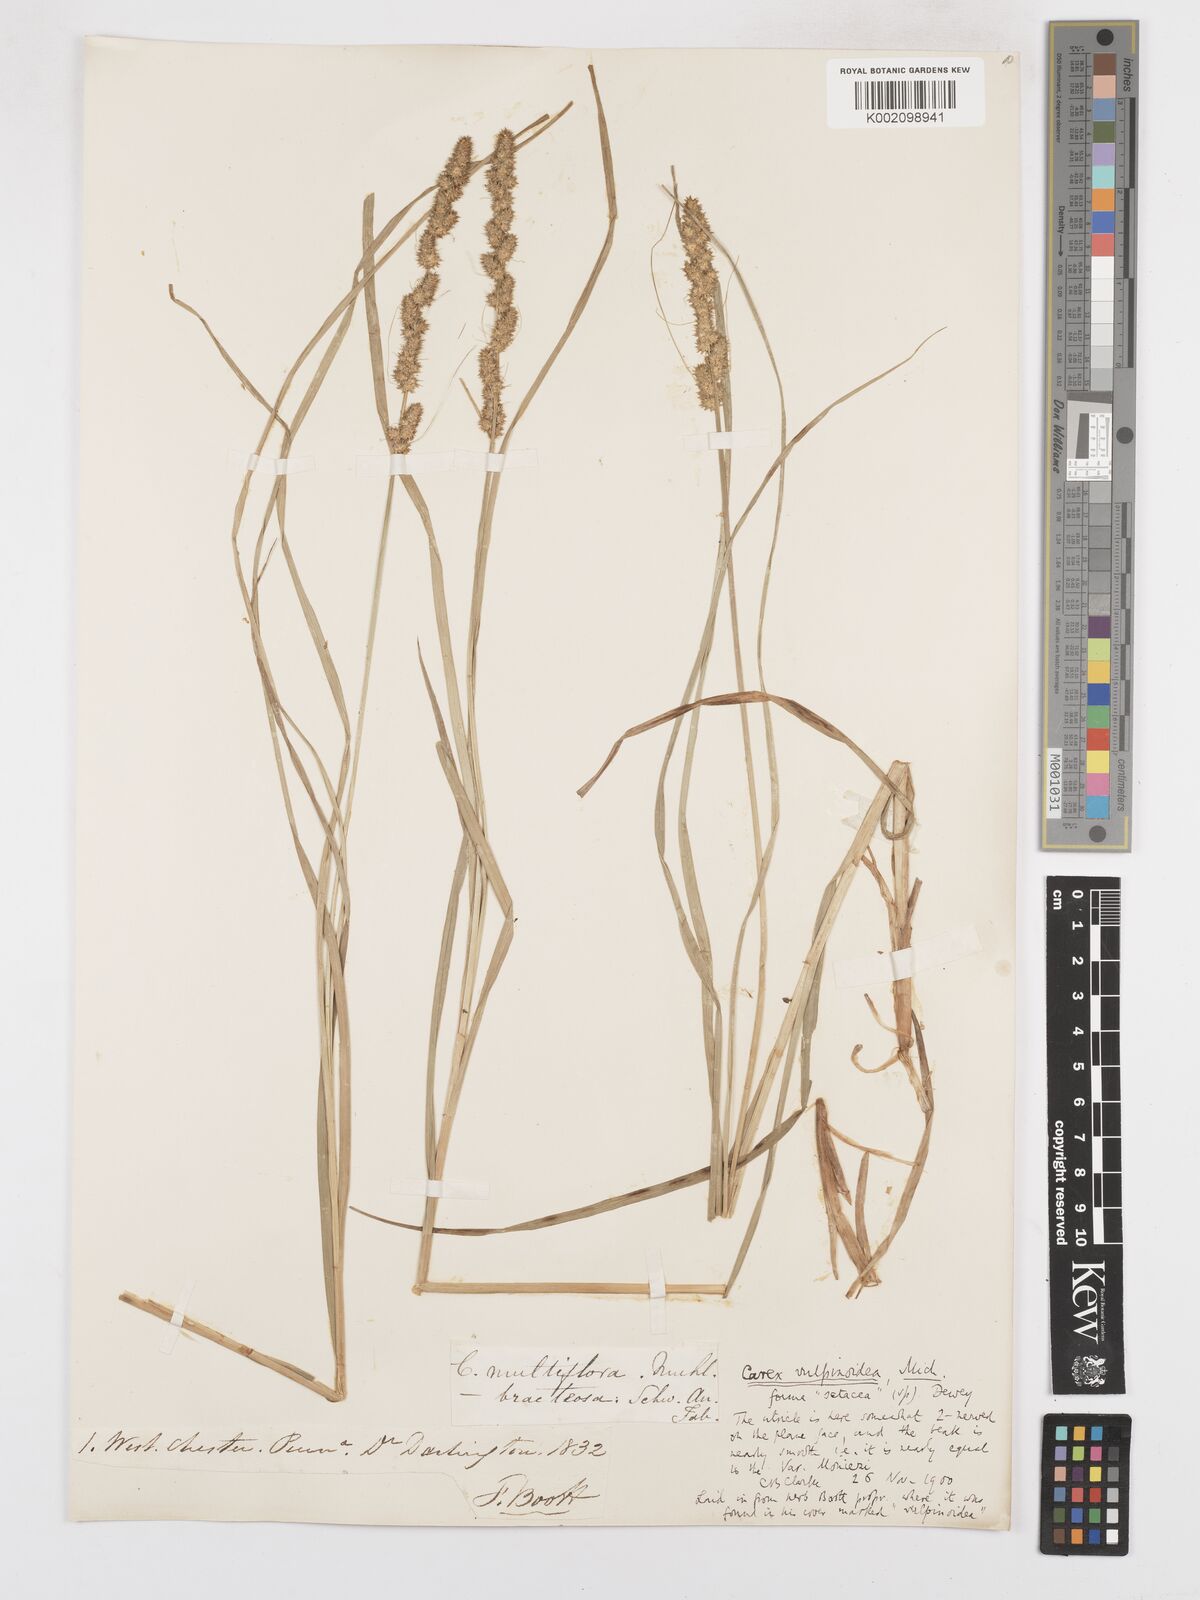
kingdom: Plantae
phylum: Tracheophyta
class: Liliopsida
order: Poales
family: Cyperaceae
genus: Carex
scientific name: Carex vulpinoidea
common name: American fox-sedge
